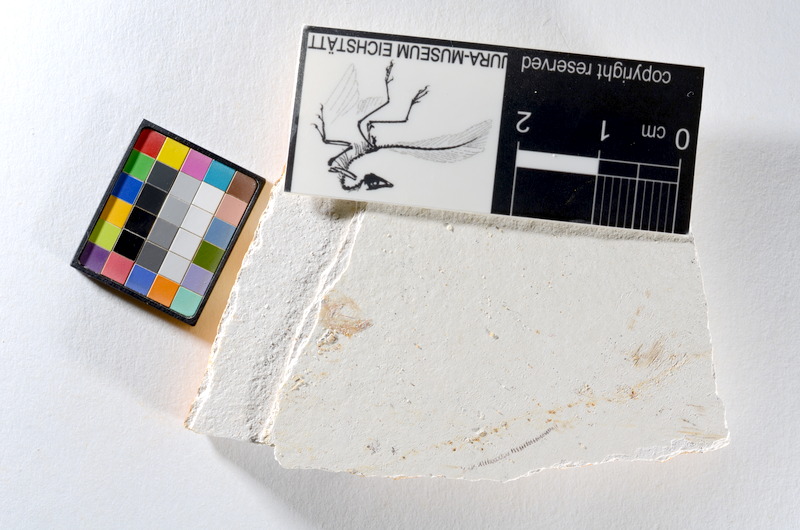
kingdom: Animalia
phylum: Chordata
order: Salmoniformes
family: Orthogonikleithridae
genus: Orthogonikleithrus
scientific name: Orthogonikleithrus hoelli
